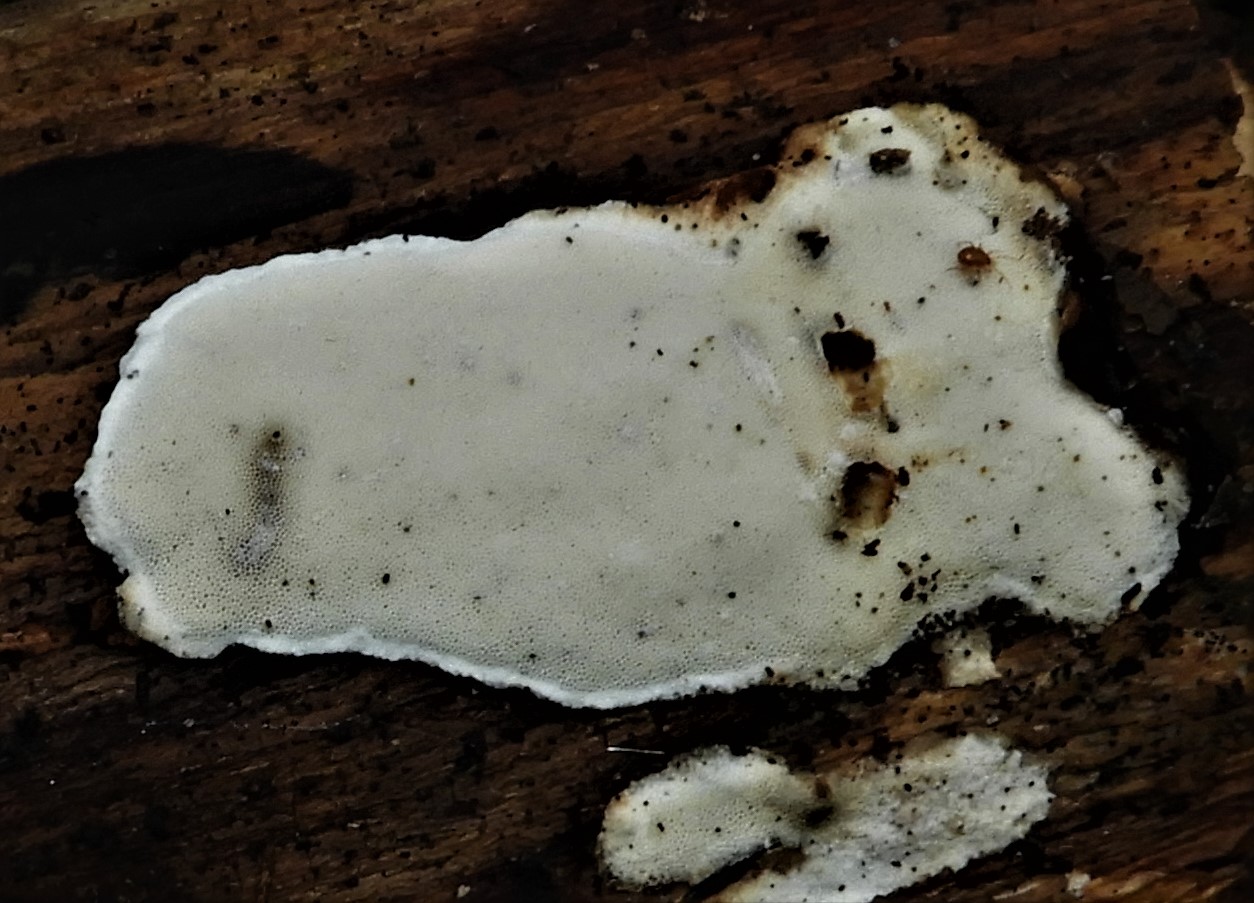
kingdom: Fungi
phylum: Basidiomycota
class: Agaricomycetes
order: Polyporales
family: Incrustoporiaceae
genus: Skeletocutis
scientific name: Skeletocutis nemoralis
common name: stor krystalporesvamp
